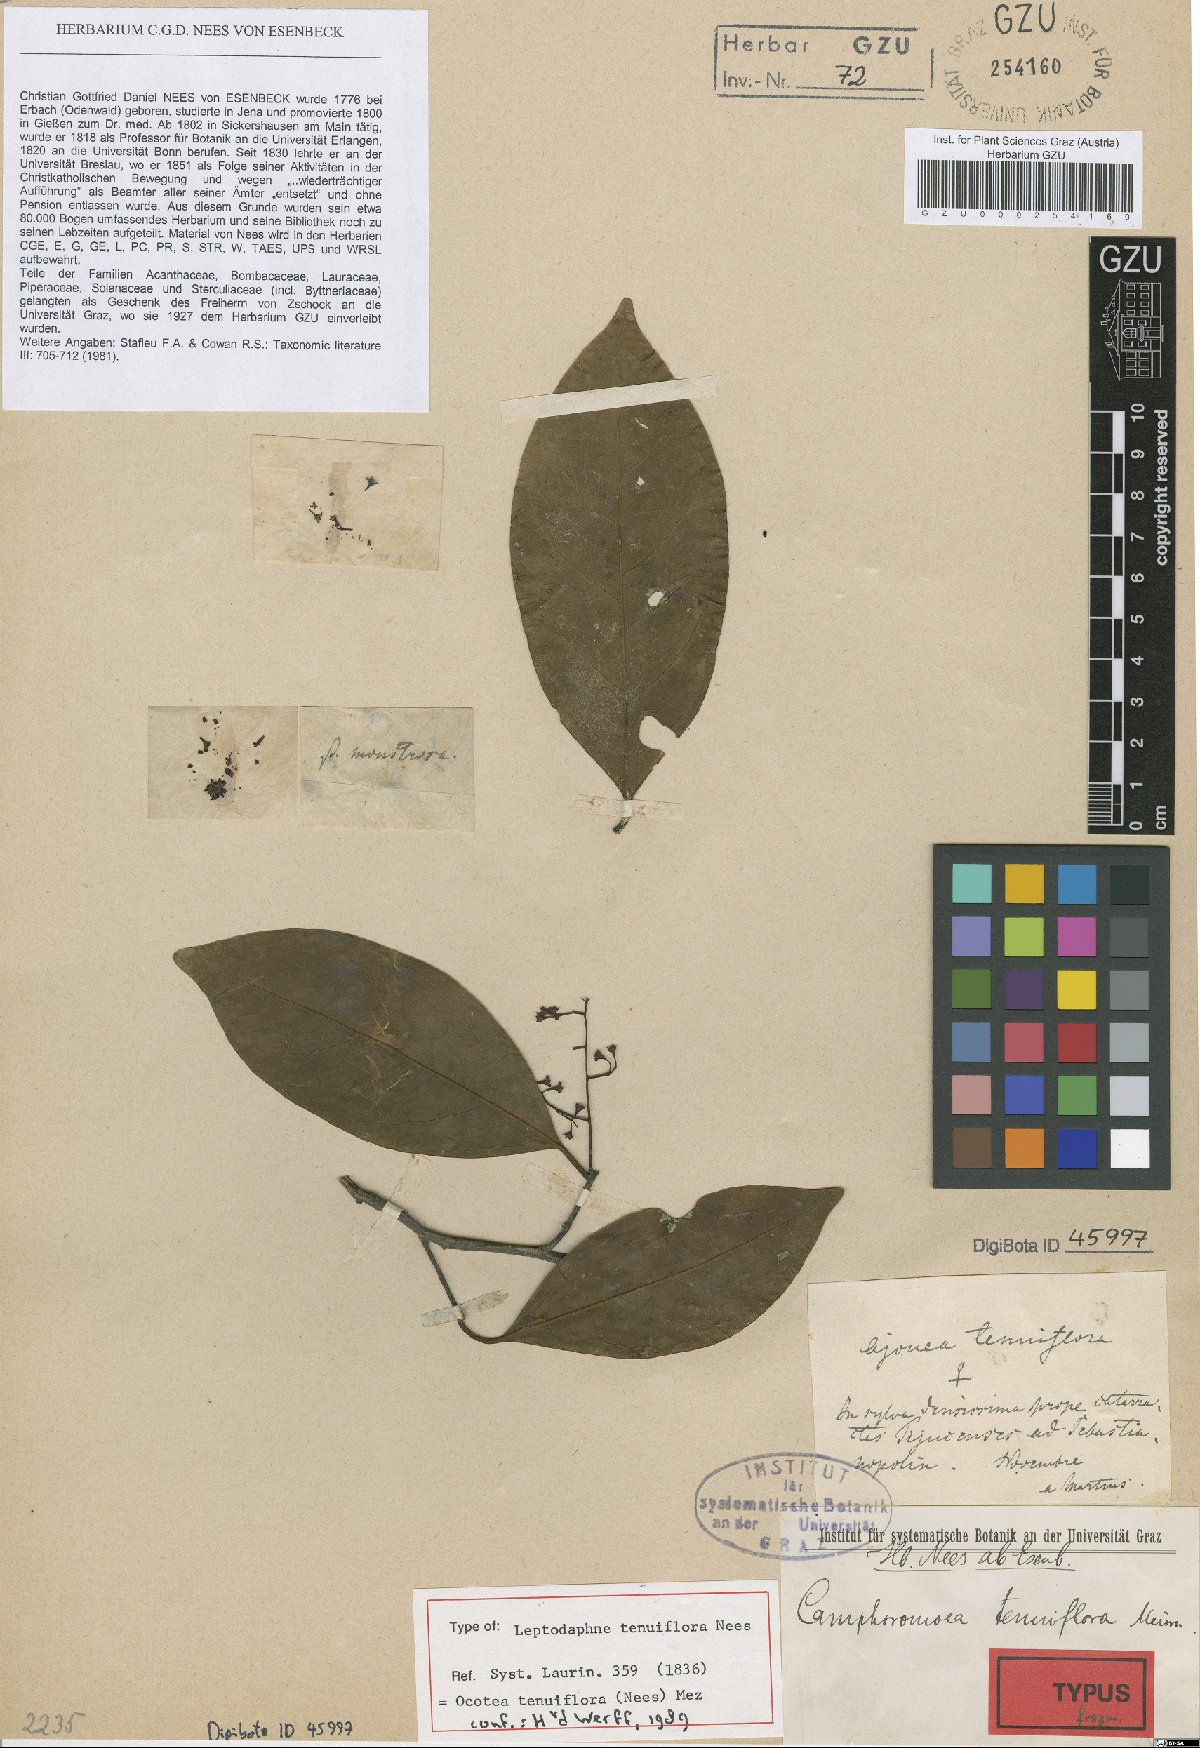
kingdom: Plantae
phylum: Tracheophyta
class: Magnoliopsida
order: Laurales
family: Lauraceae
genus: Ocotea
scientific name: Ocotea tenuiflora
